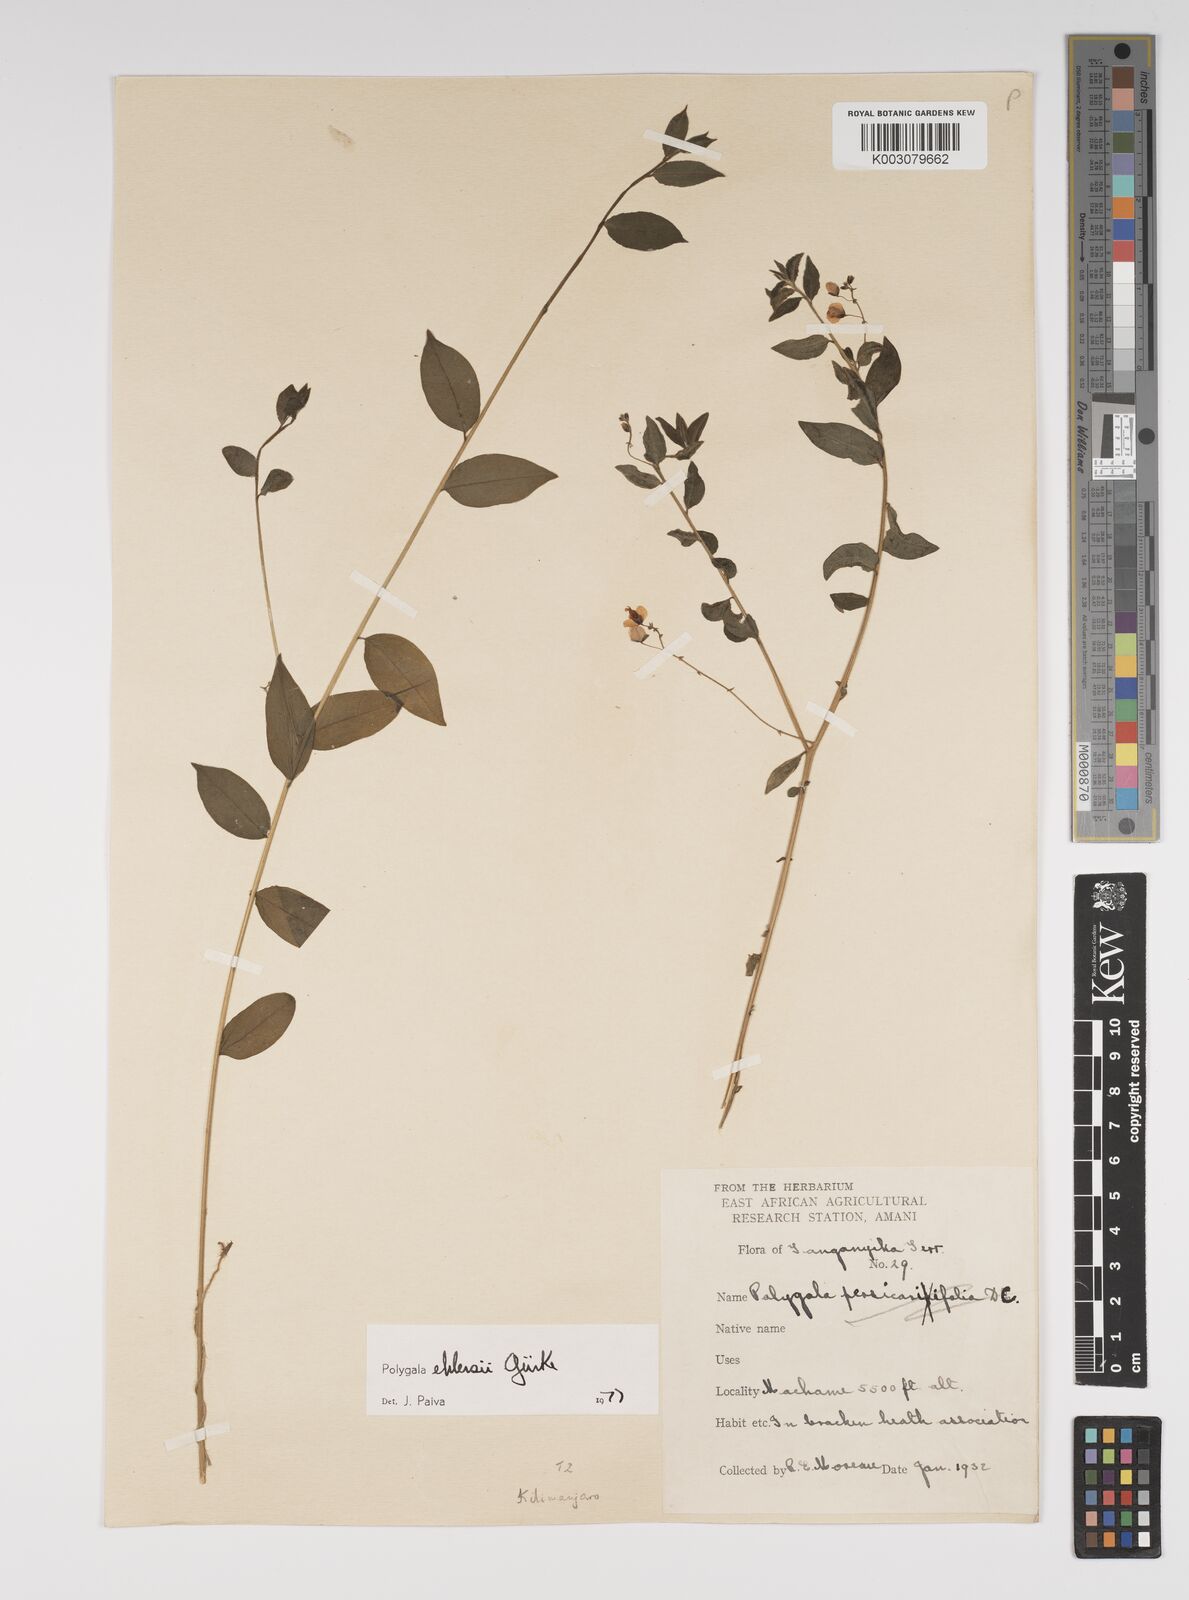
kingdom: Plantae
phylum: Tracheophyta
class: Magnoliopsida
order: Fabales
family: Polygalaceae
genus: Polygala
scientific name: Polygala ehlersii
